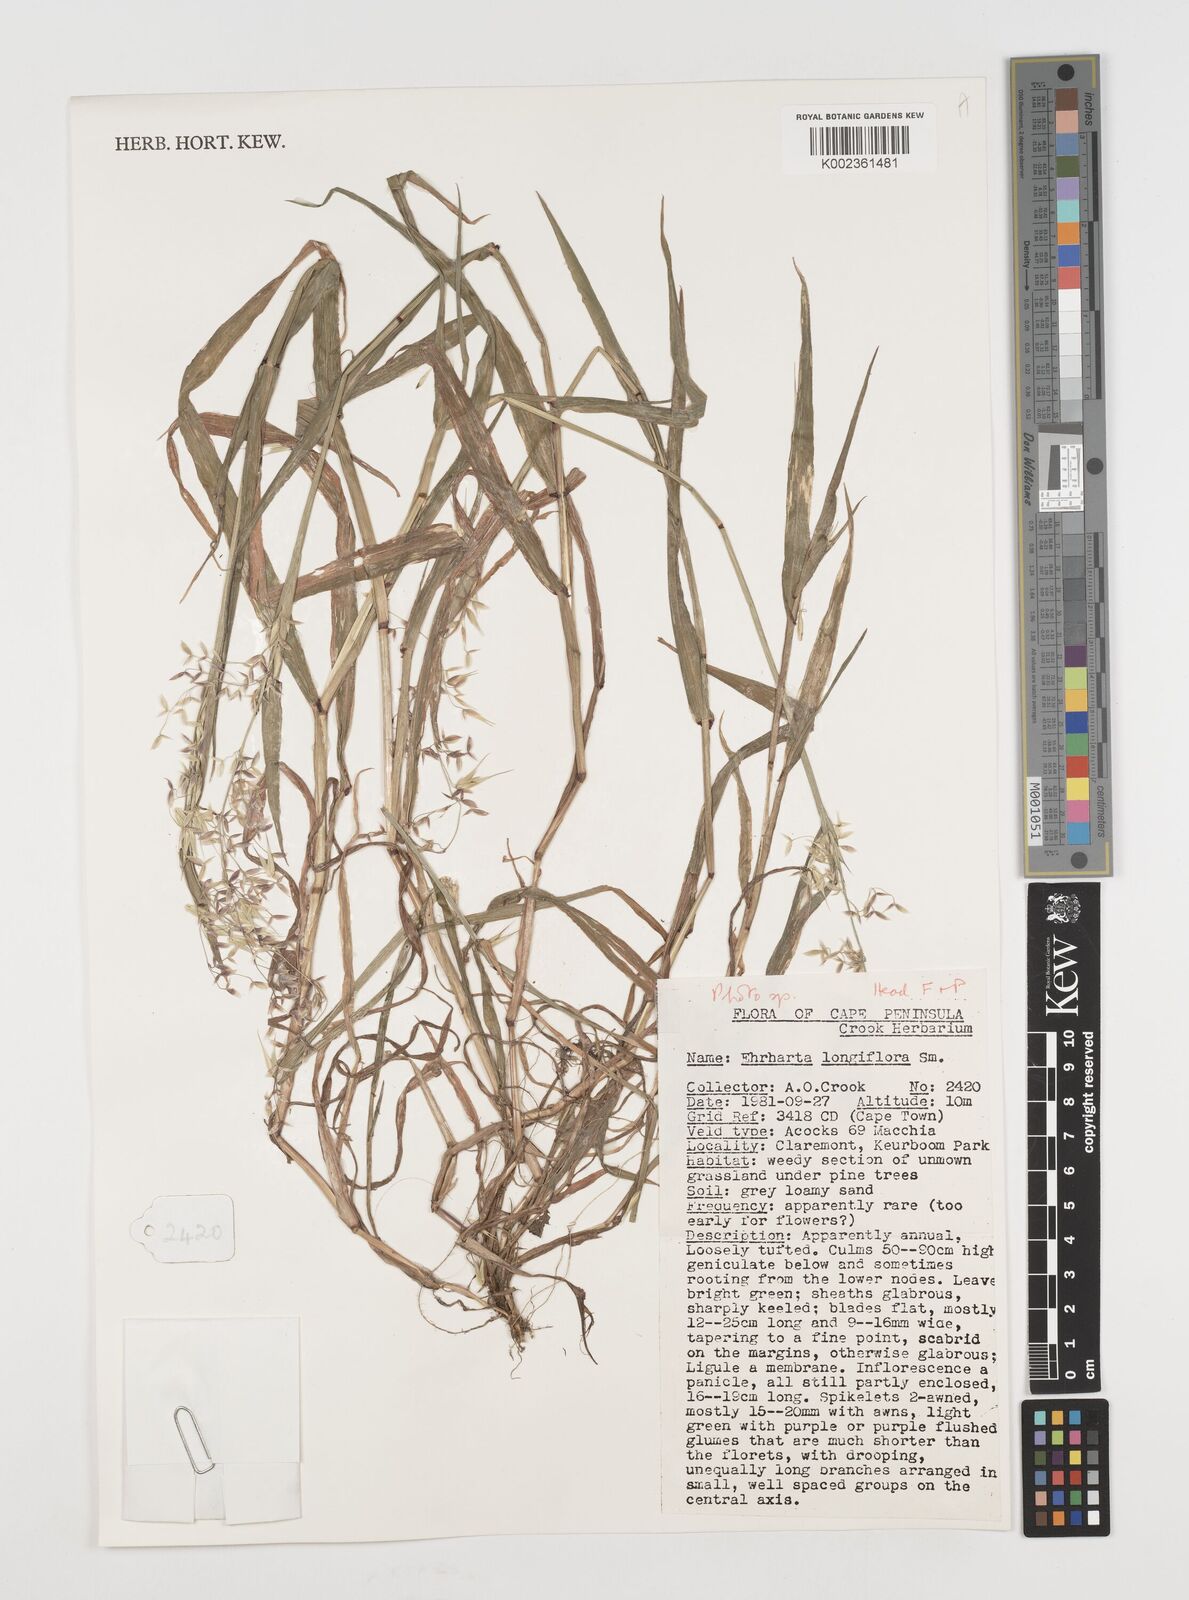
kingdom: Plantae
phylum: Tracheophyta
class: Liliopsida
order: Poales
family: Poaceae
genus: Ehrharta
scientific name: Ehrharta longiflora
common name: Longflowered veldtgrass
